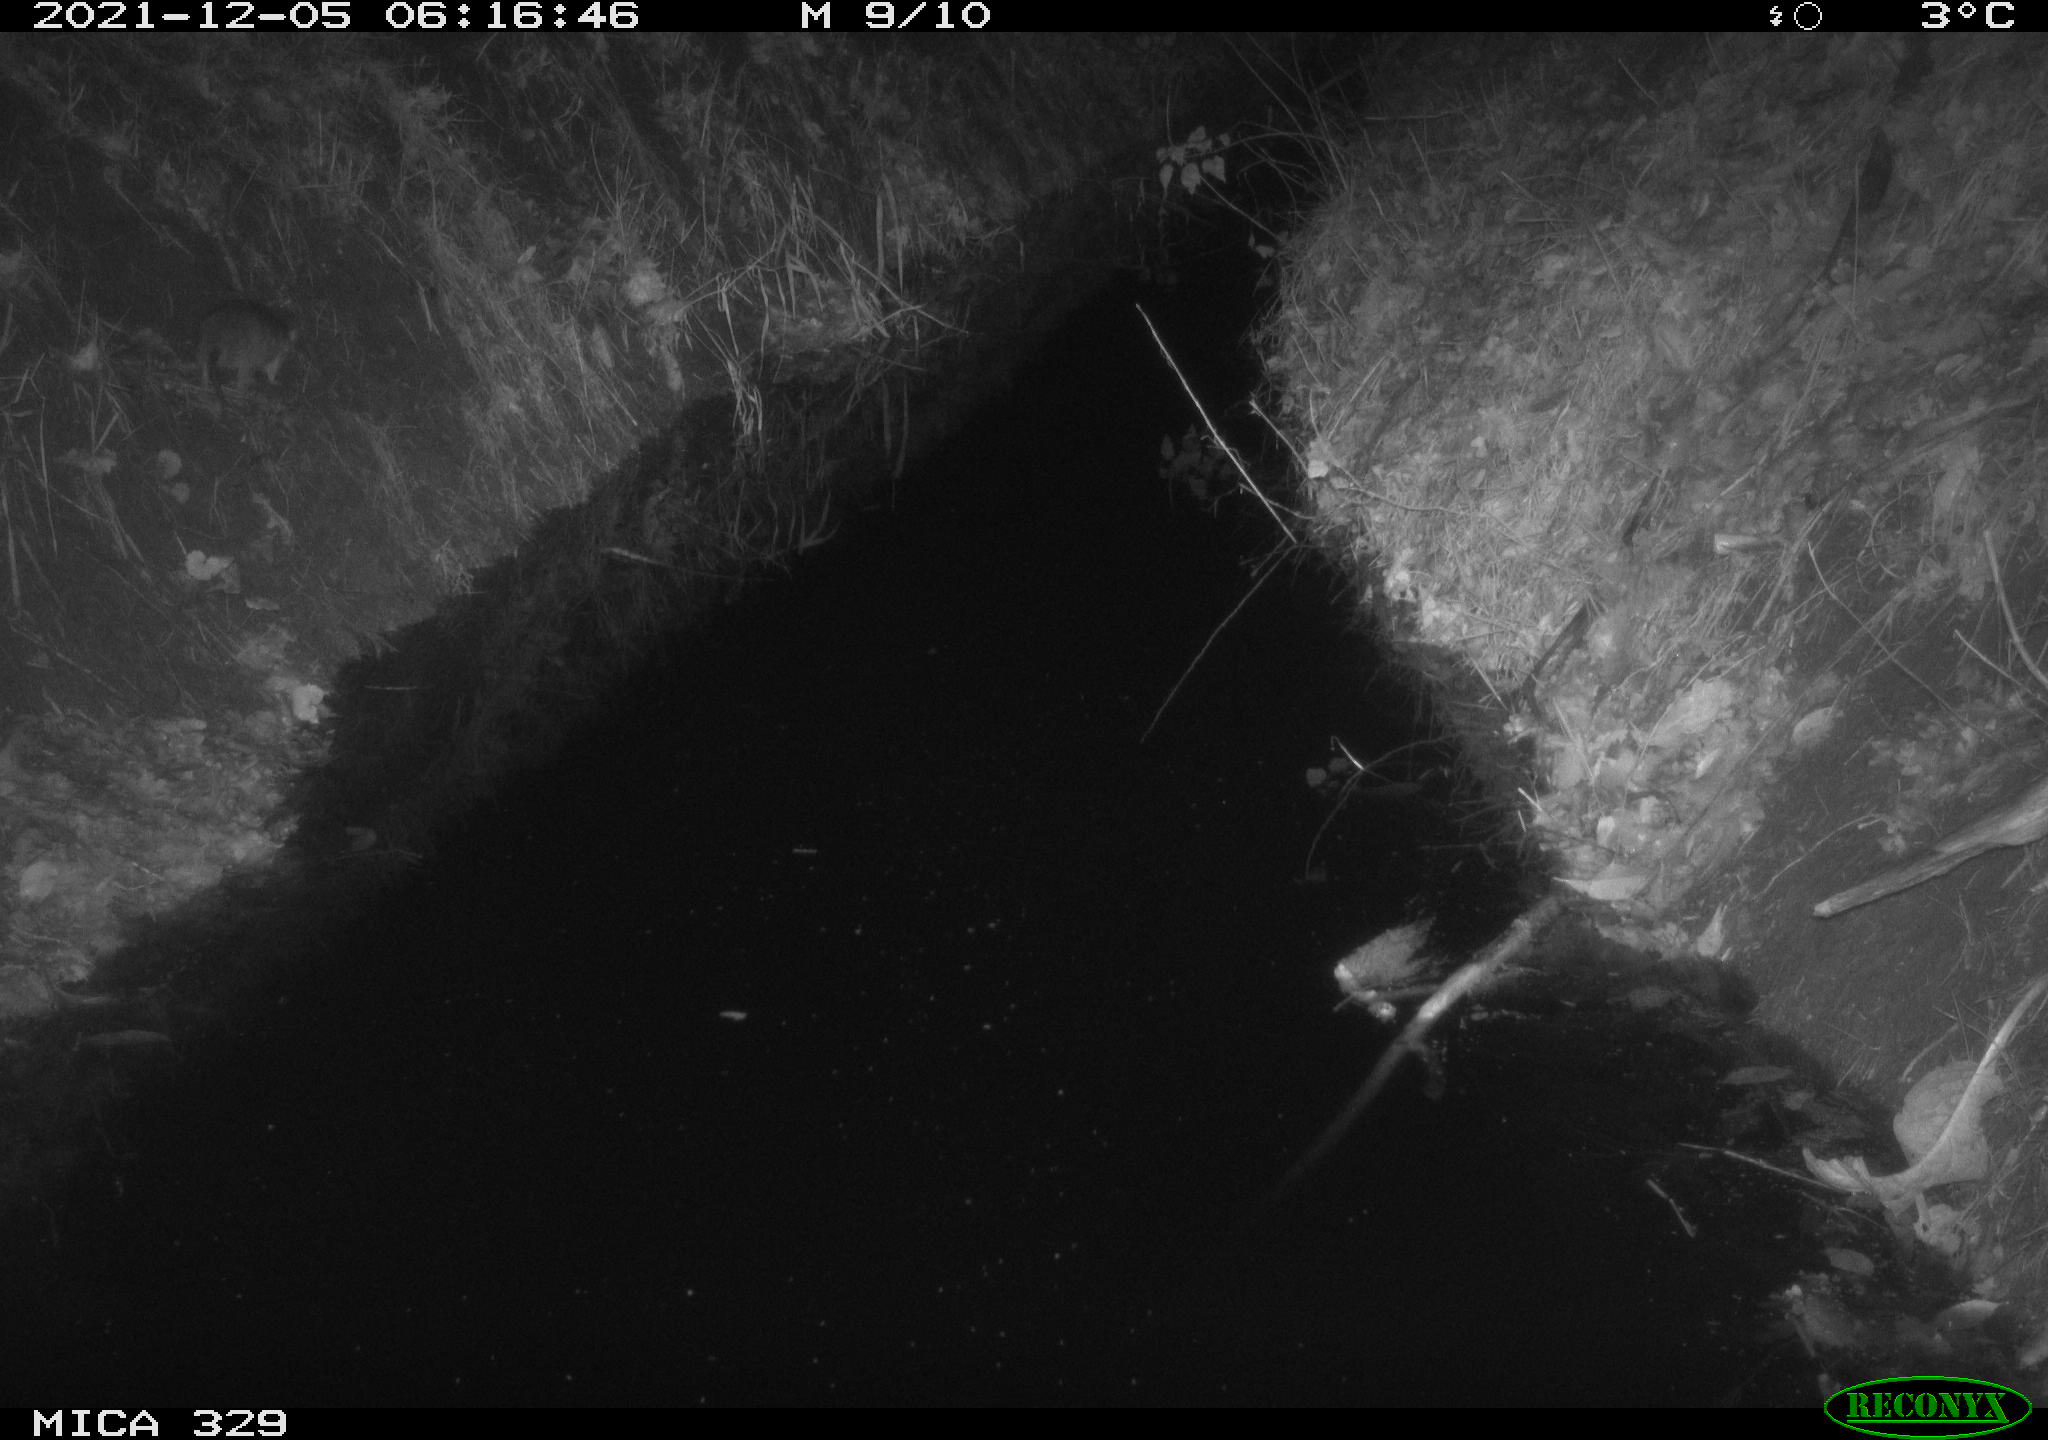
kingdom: Animalia
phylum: Chordata
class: Mammalia
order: Rodentia
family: Muridae
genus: Rattus
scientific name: Rattus norvegicus
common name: Brown rat
